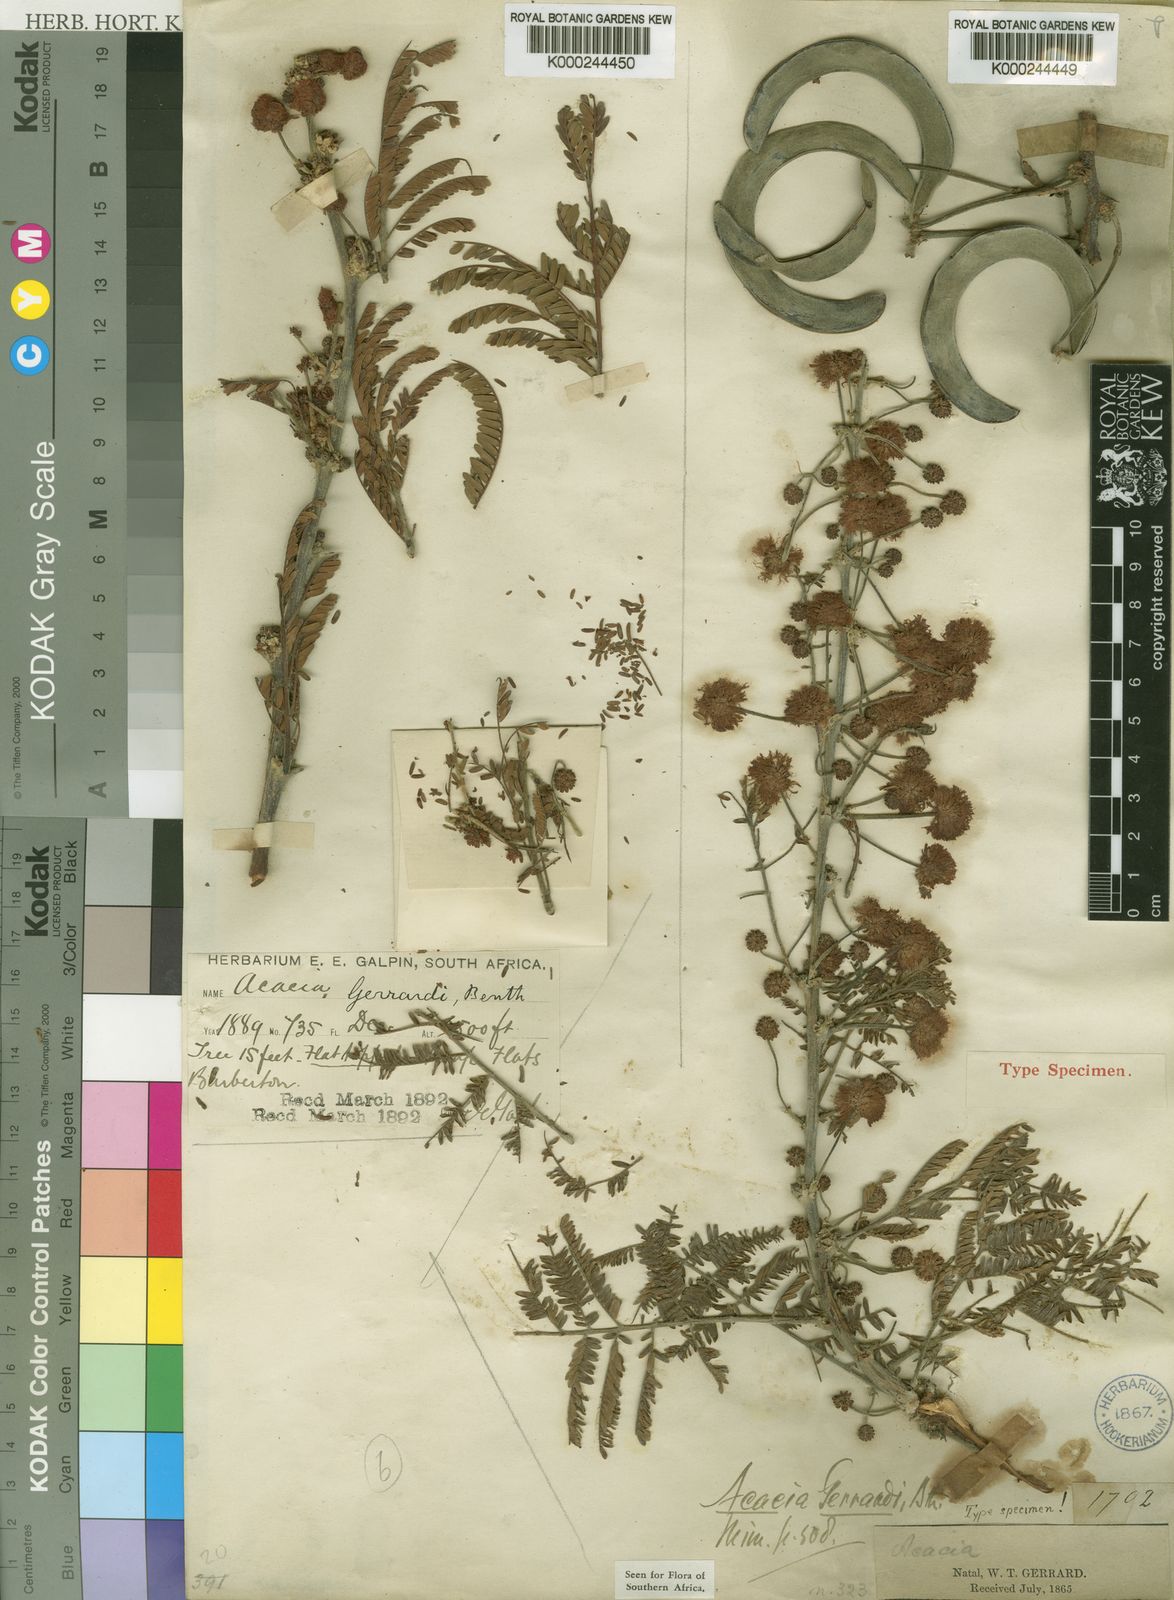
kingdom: Plantae
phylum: Tracheophyta
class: Magnoliopsida
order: Fabales
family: Fabaceae
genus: Vachellia
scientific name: Vachellia gerrardii
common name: Redthorn
